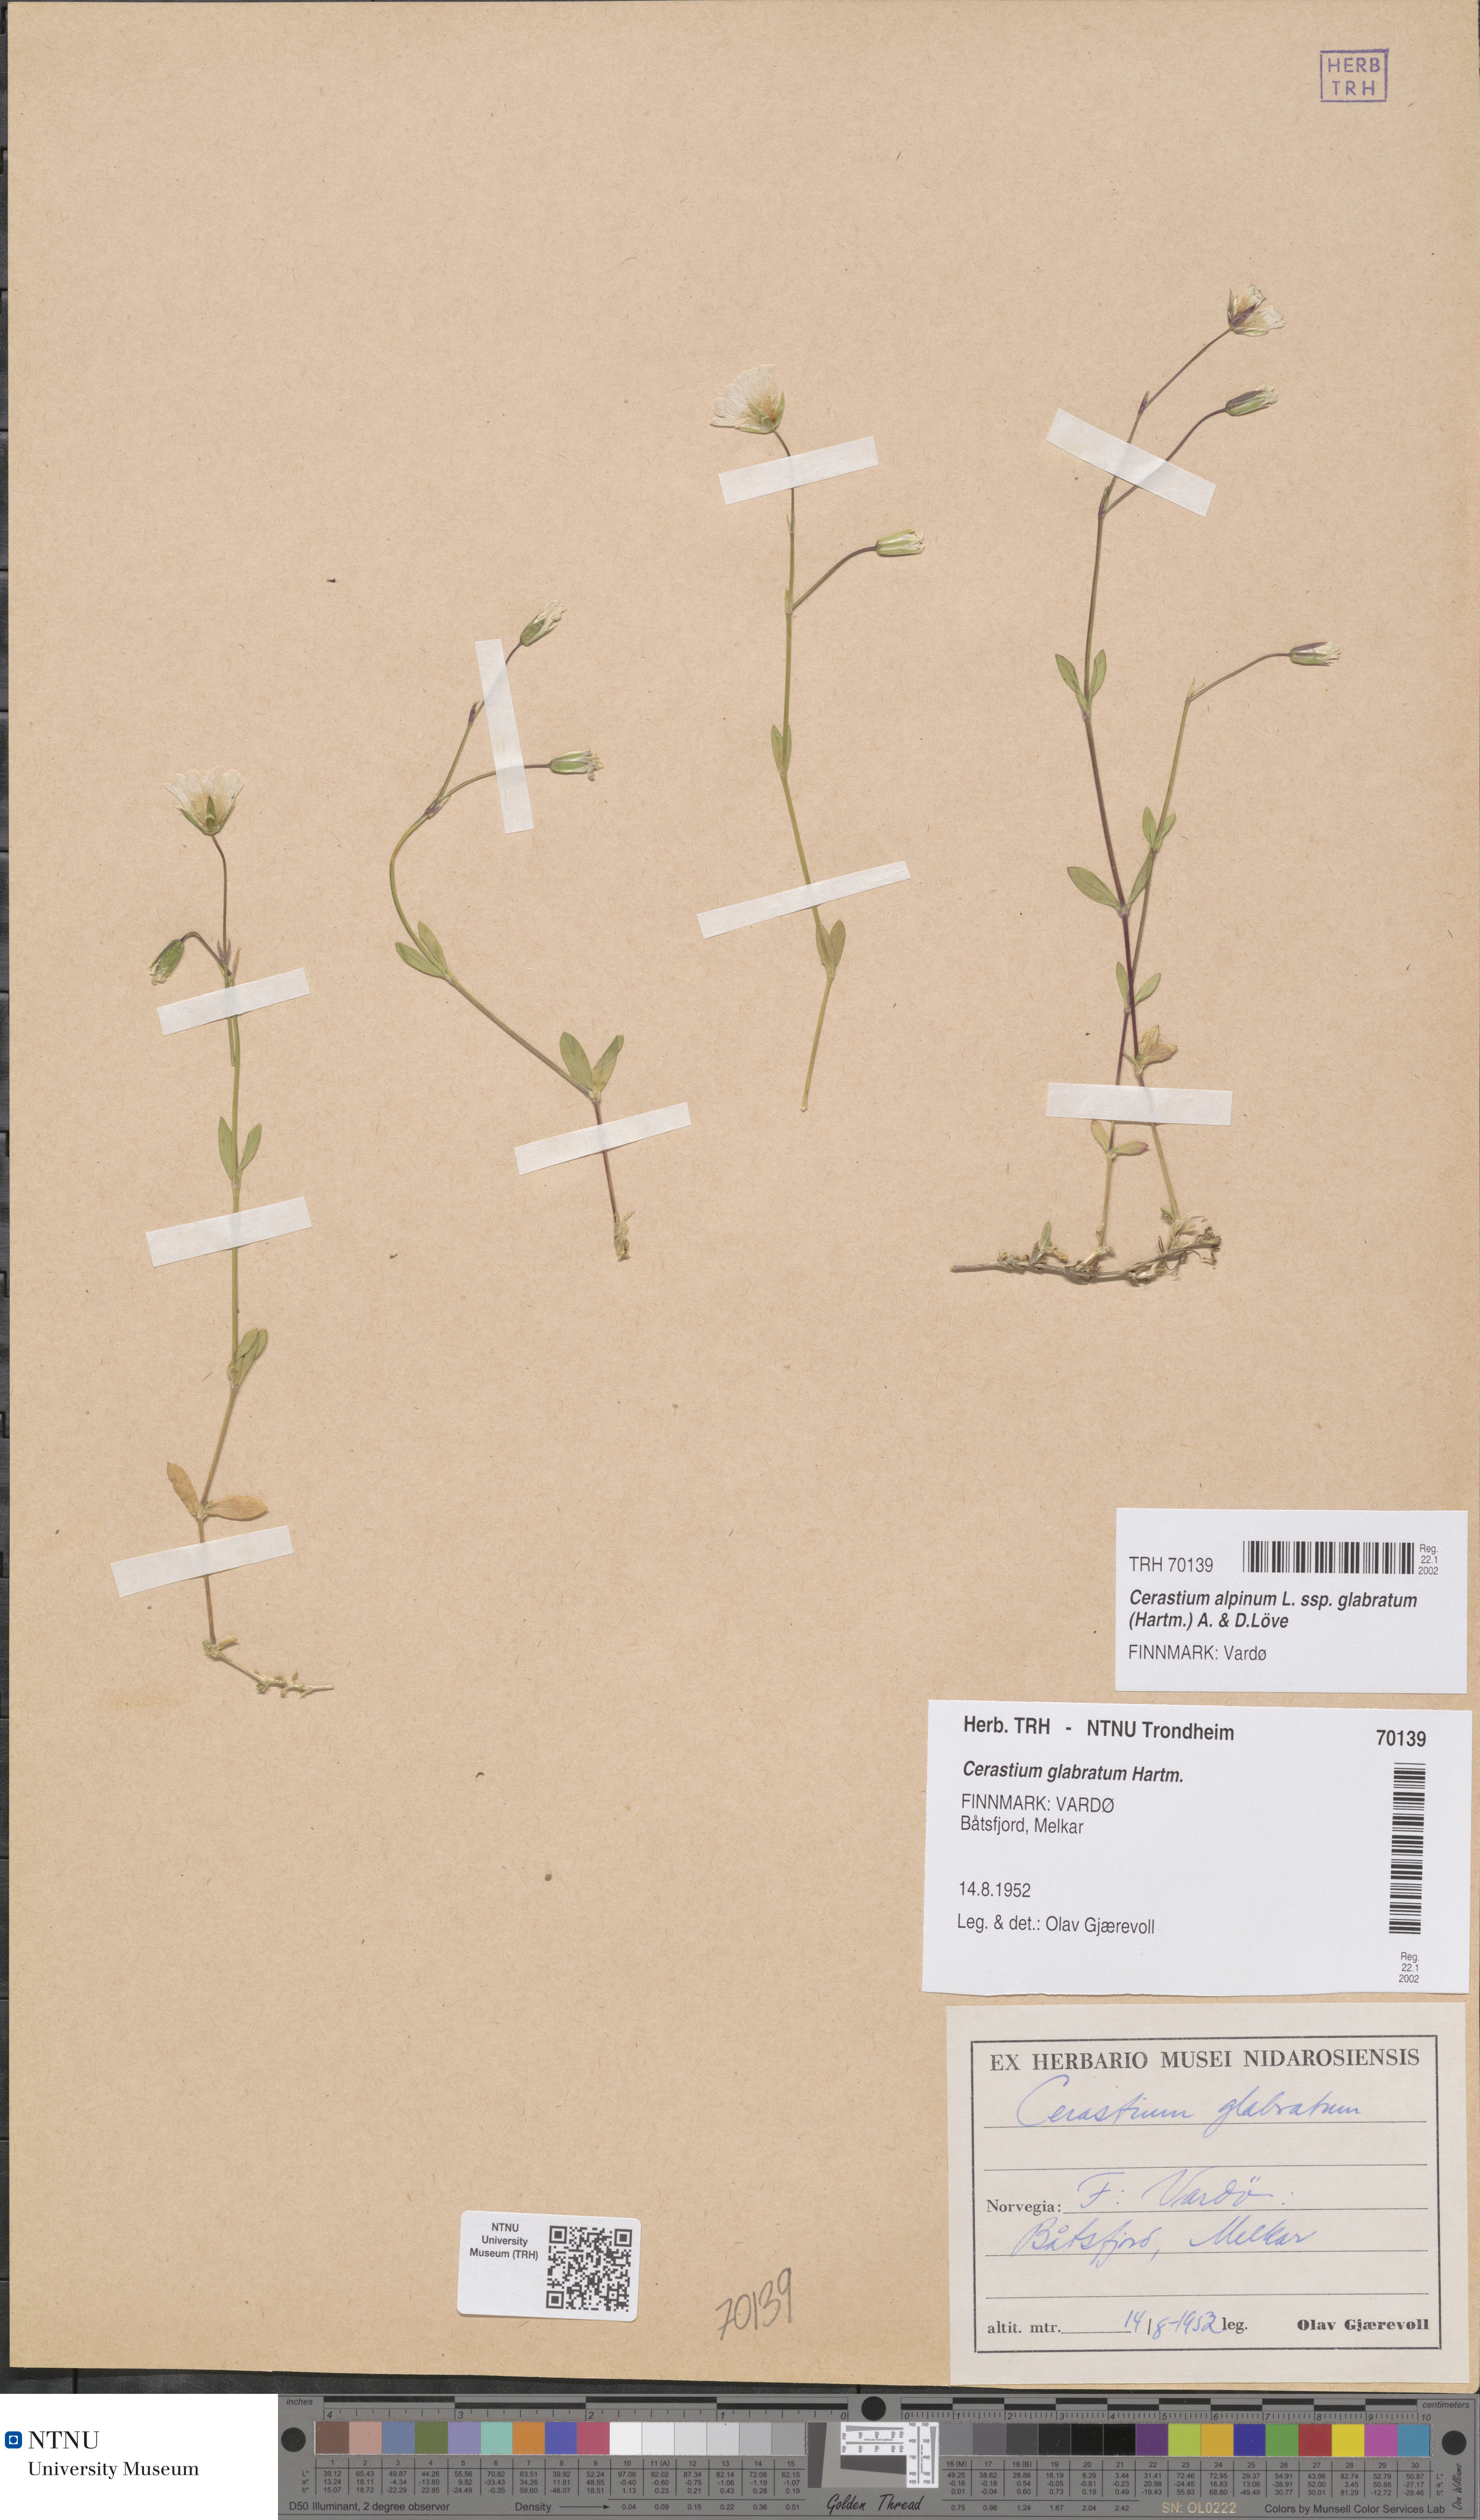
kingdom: Plantae
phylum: Tracheophyta
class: Magnoliopsida
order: Caryophyllales
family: Caryophyllaceae
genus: Cerastium
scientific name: Cerastium alpinum
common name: Alpine mouse-ear
